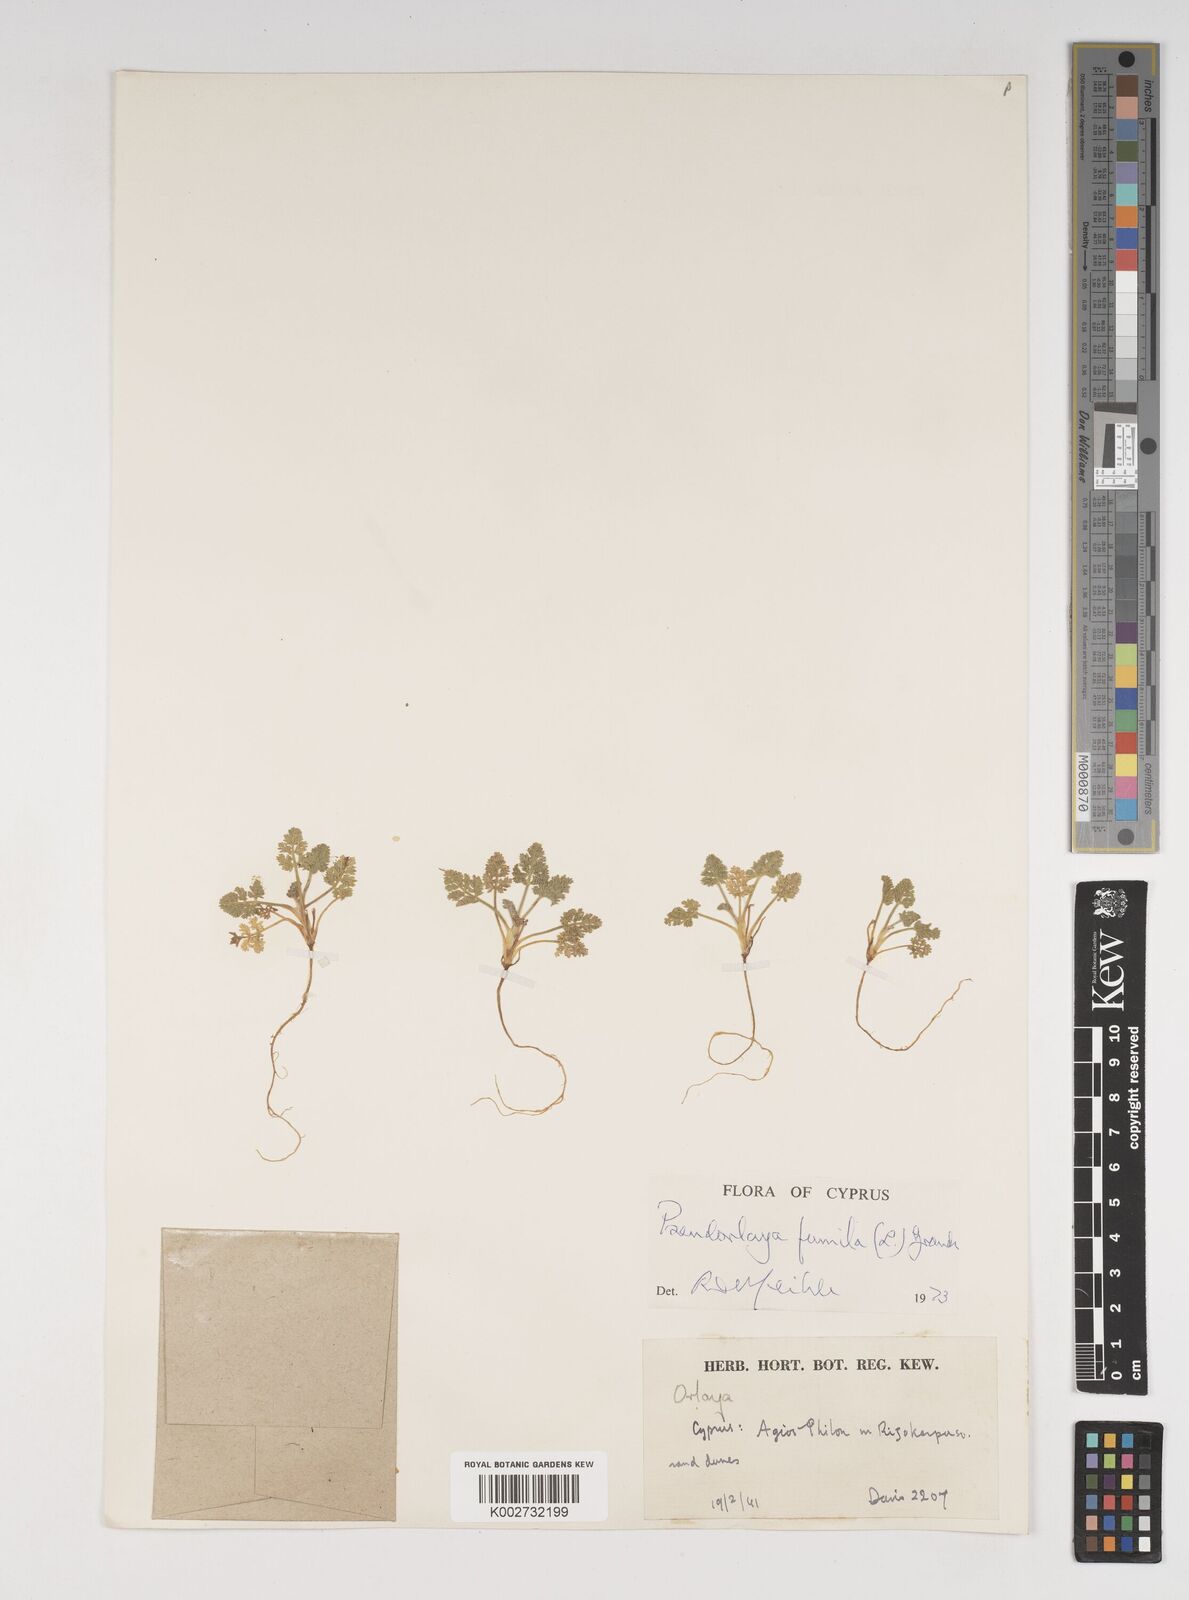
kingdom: Plantae
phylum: Tracheophyta
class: Magnoliopsida
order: Apiales
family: Apiaceae
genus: Daucus
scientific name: Daucus pumilus
